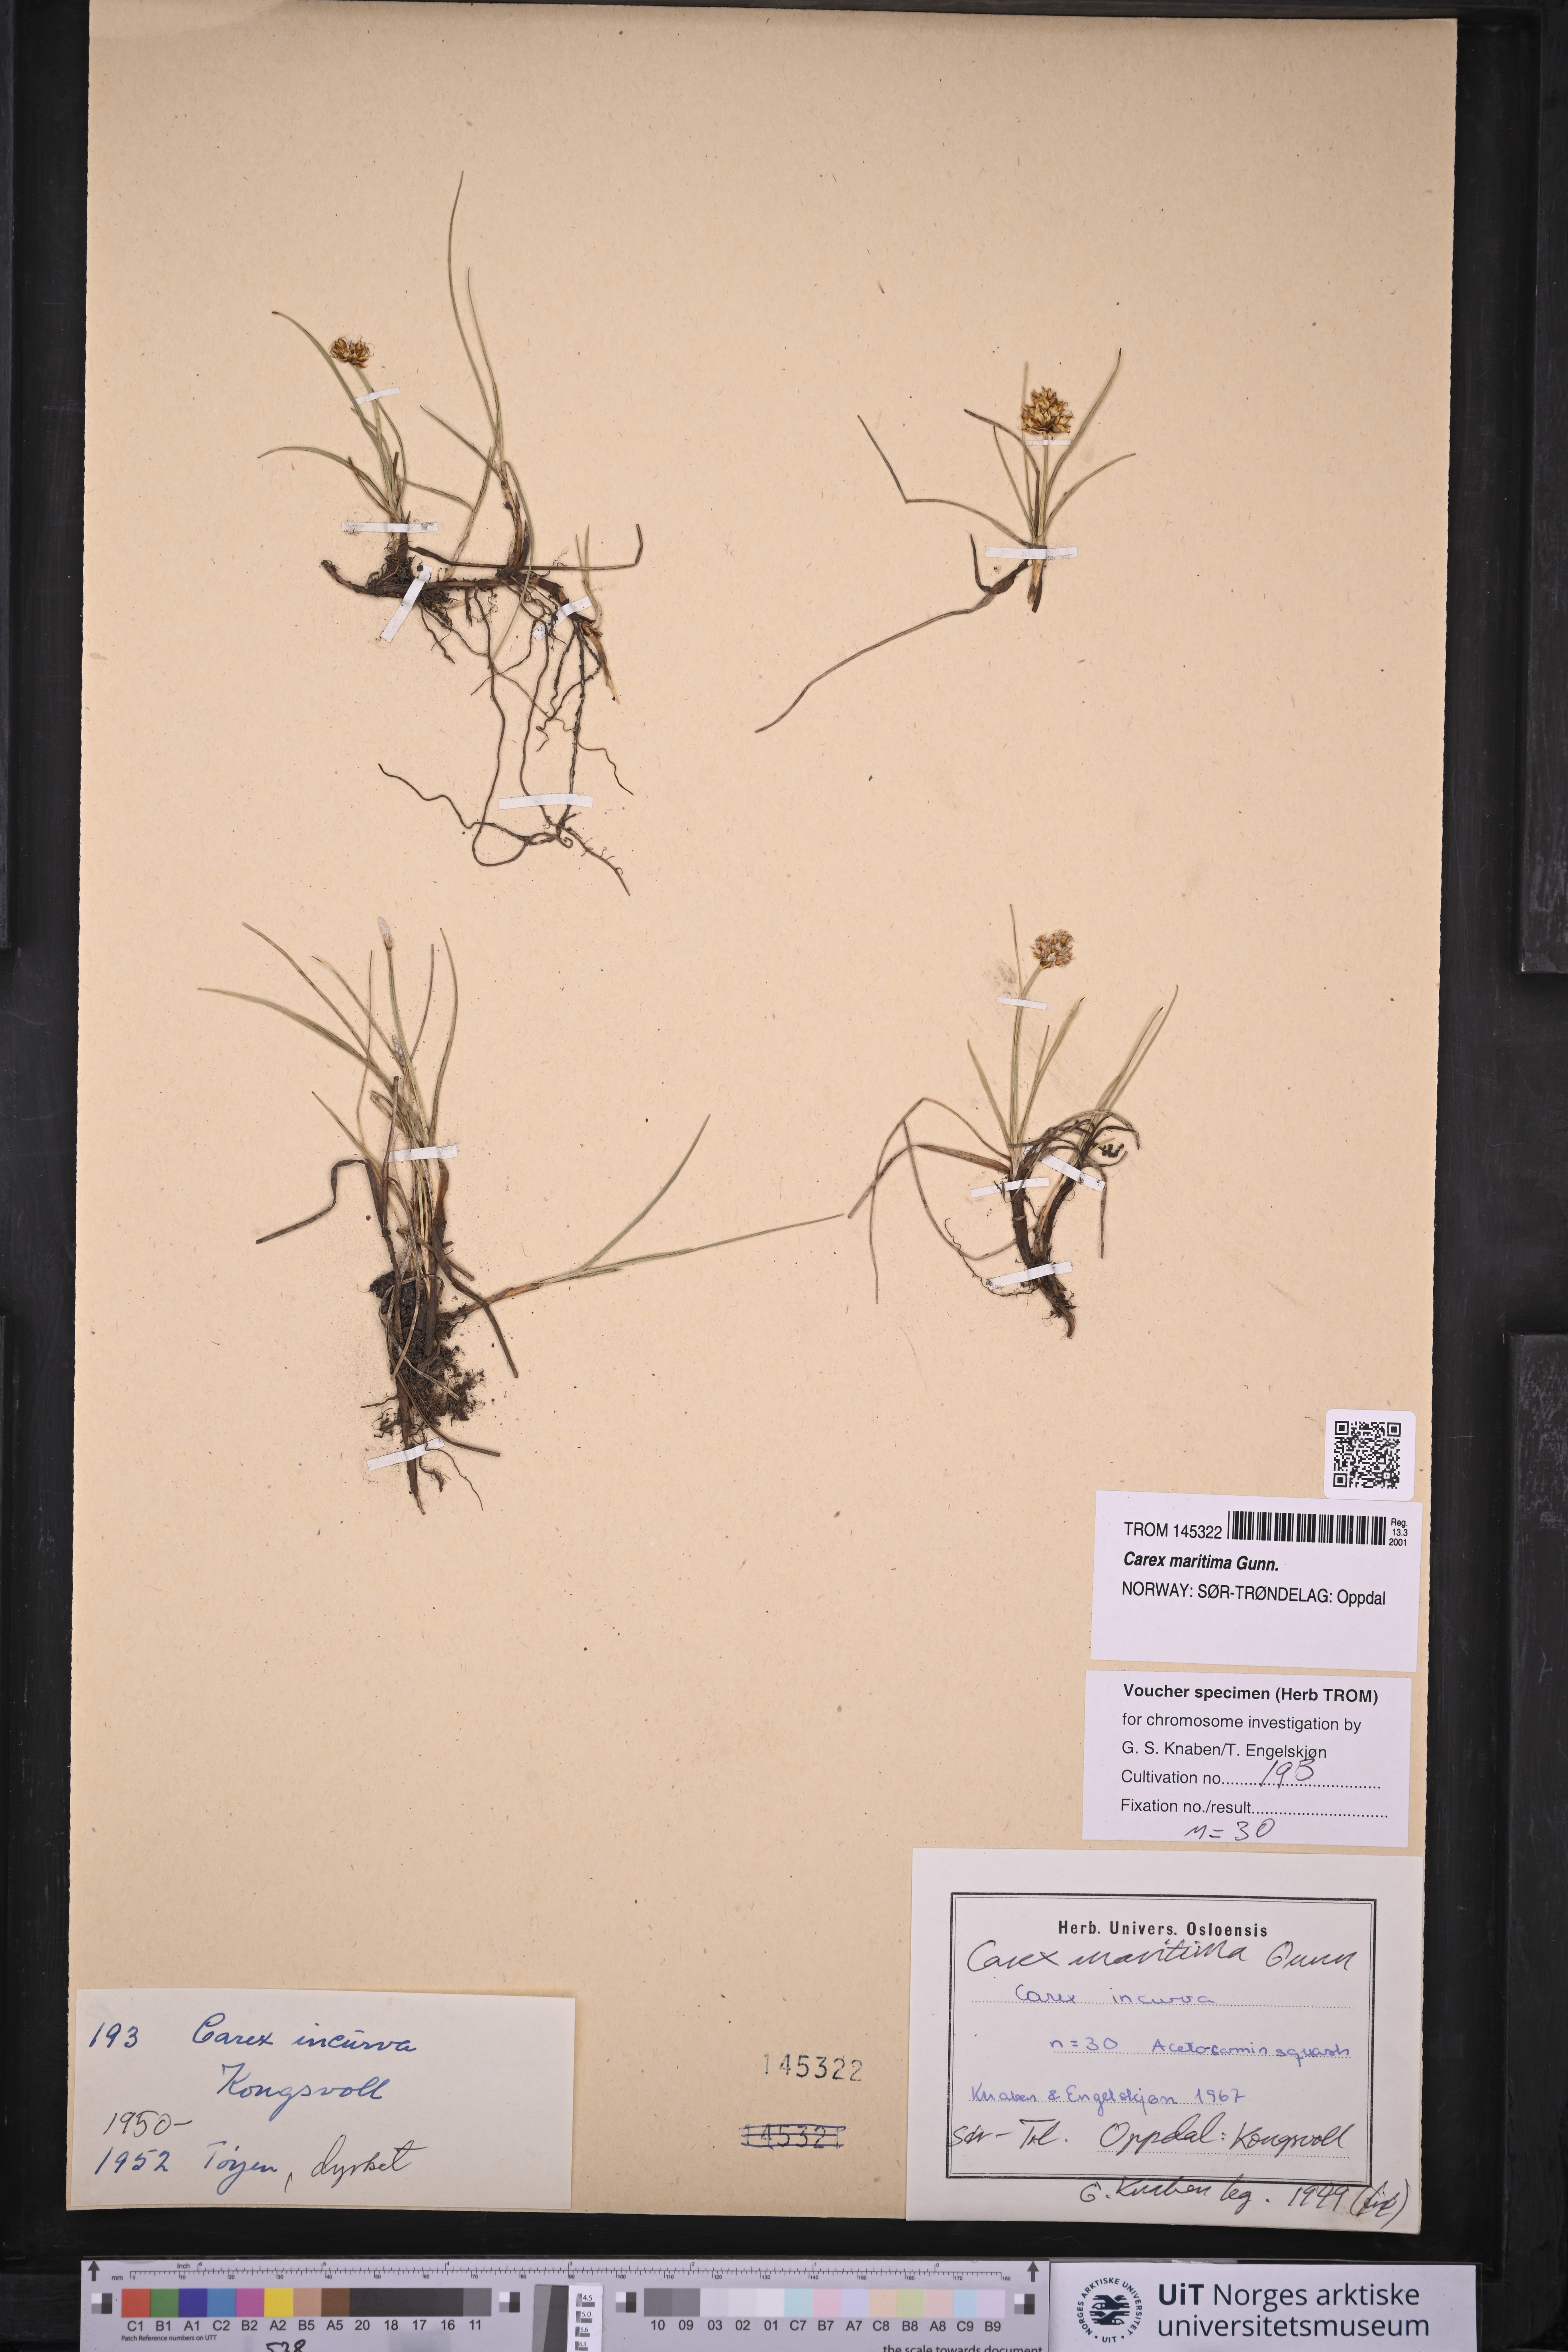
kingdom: Plantae
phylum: Tracheophyta
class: Liliopsida
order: Poales
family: Cyperaceae
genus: Carex
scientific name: Carex maritima
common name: Curved sedge
